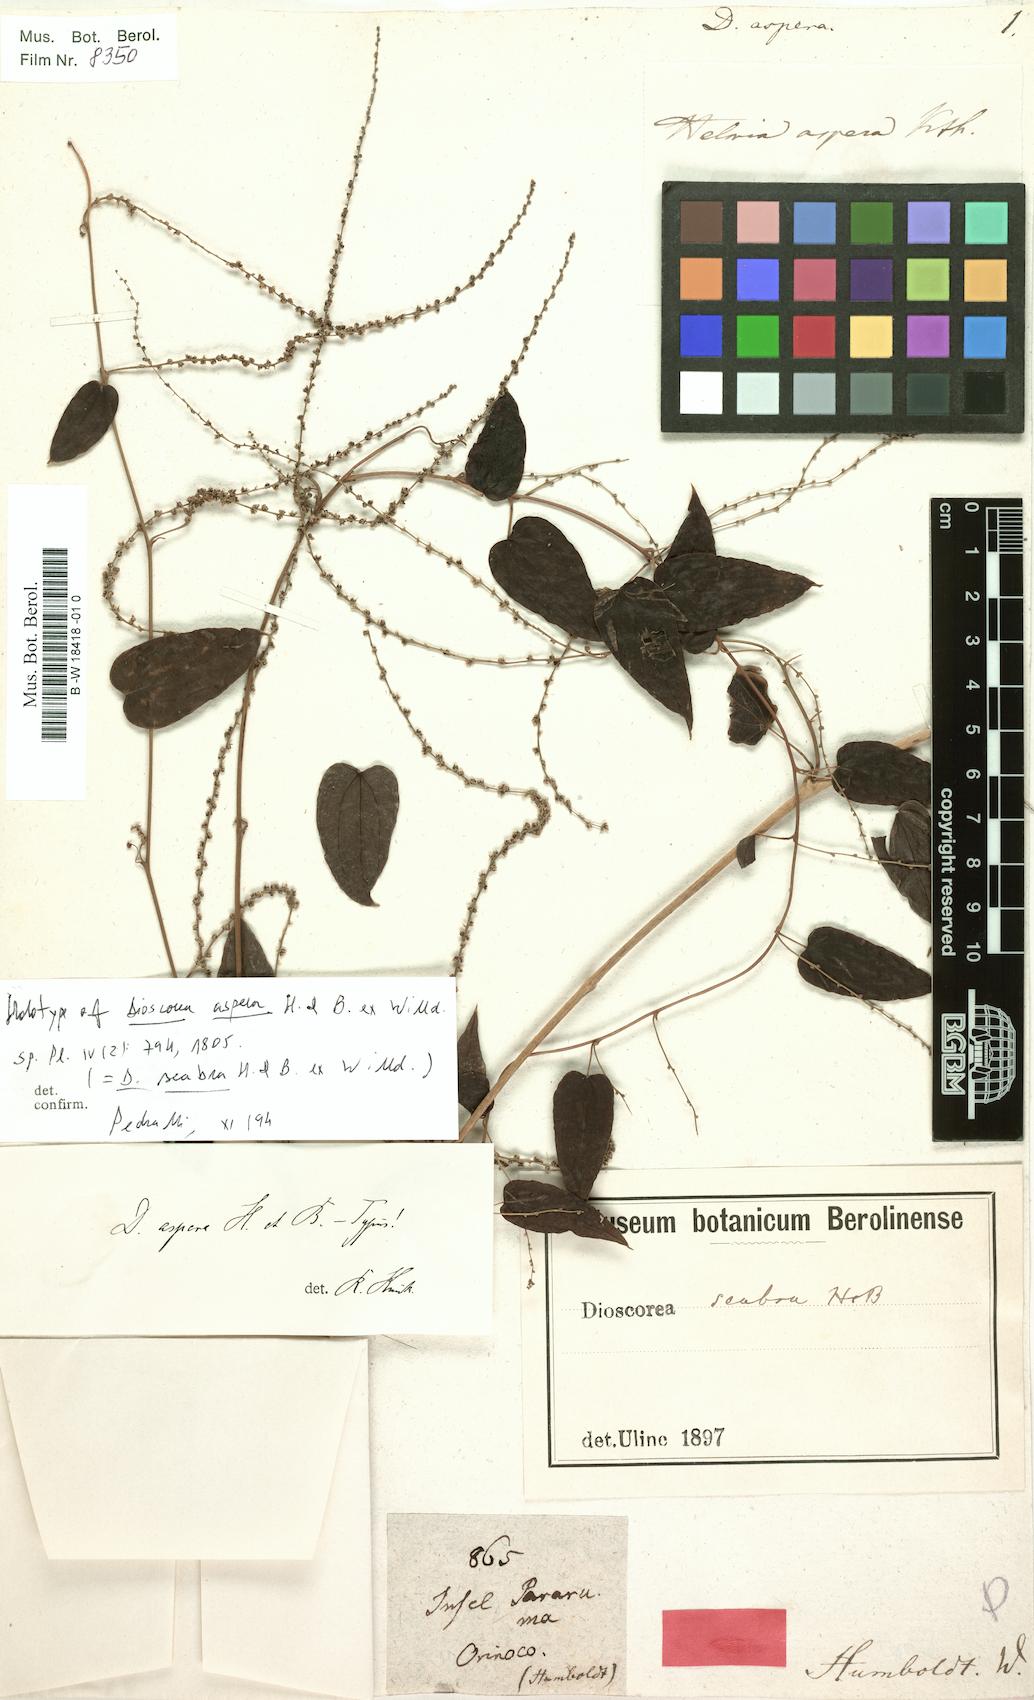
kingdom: Plantae
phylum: Tracheophyta
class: Liliopsida
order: Dioscoreales
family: Dioscoreaceae
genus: Dioscorea
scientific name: Dioscorea aspera
